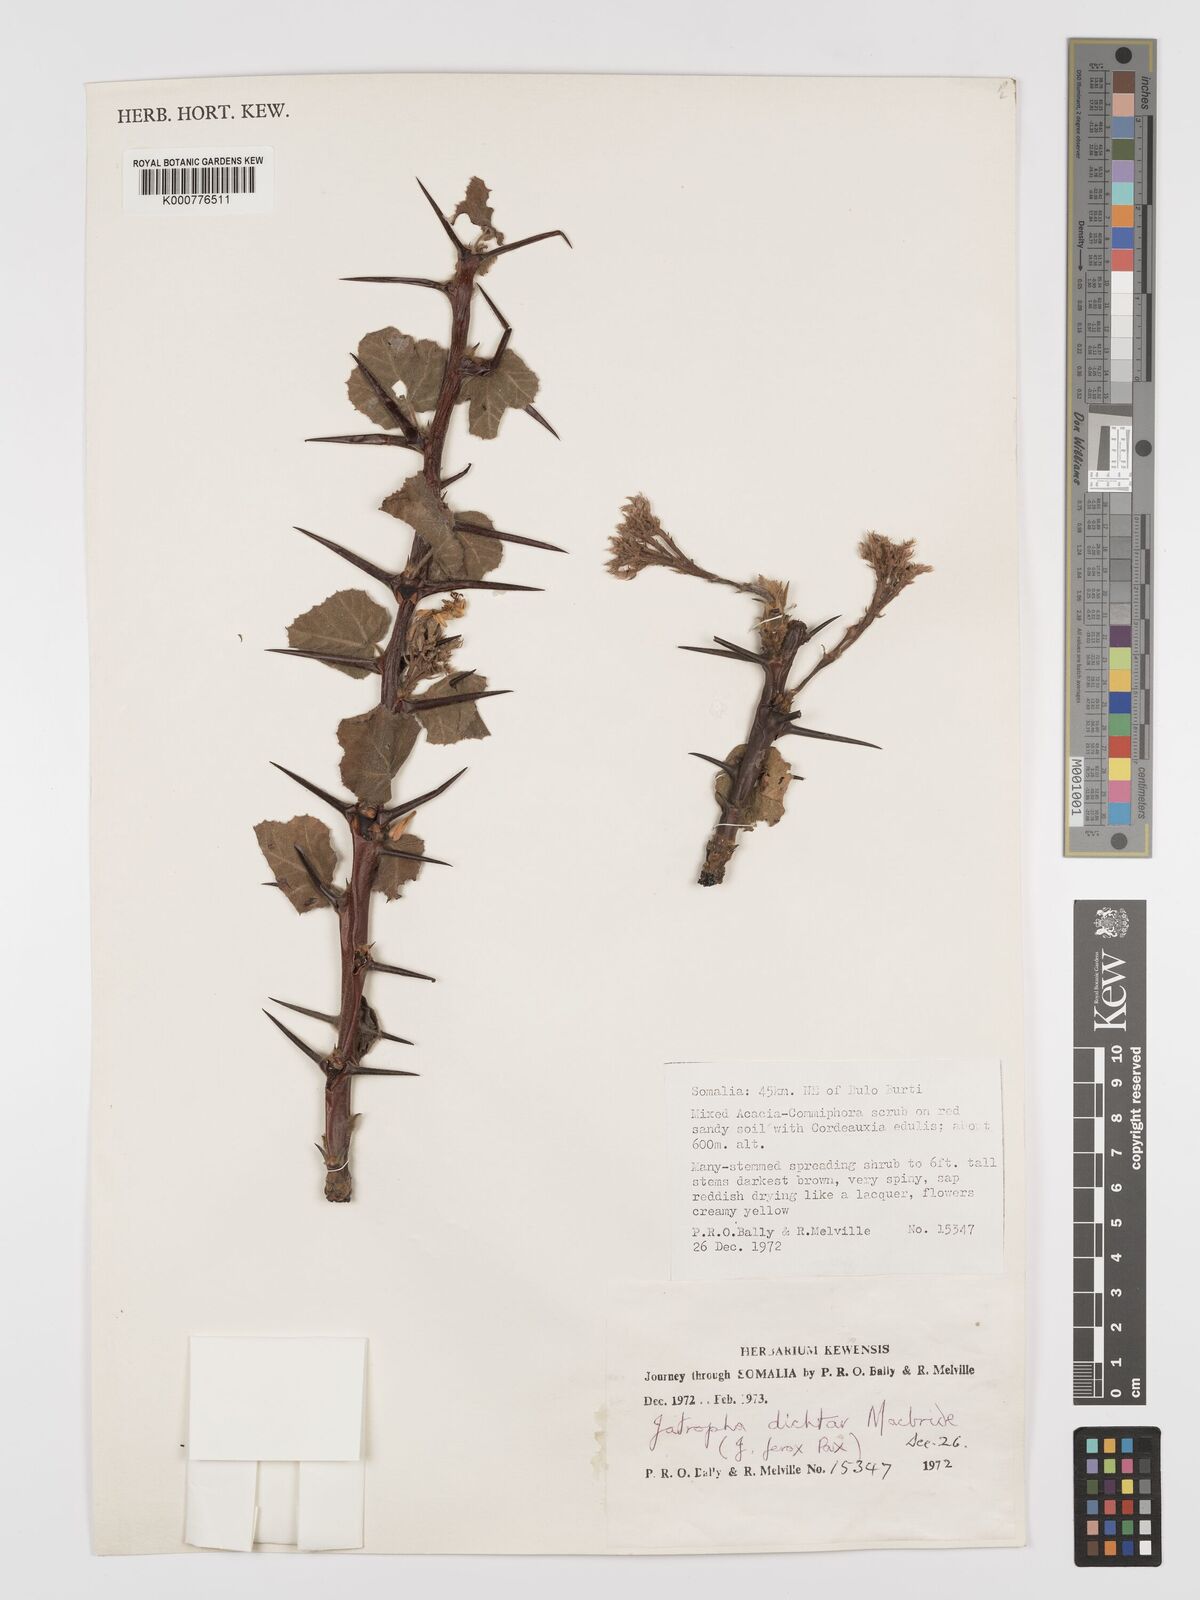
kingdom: Plantae
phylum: Tracheophyta
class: Magnoliopsida
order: Malpighiales
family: Euphorbiaceae
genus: Jatropha
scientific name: Jatropha dichtar
